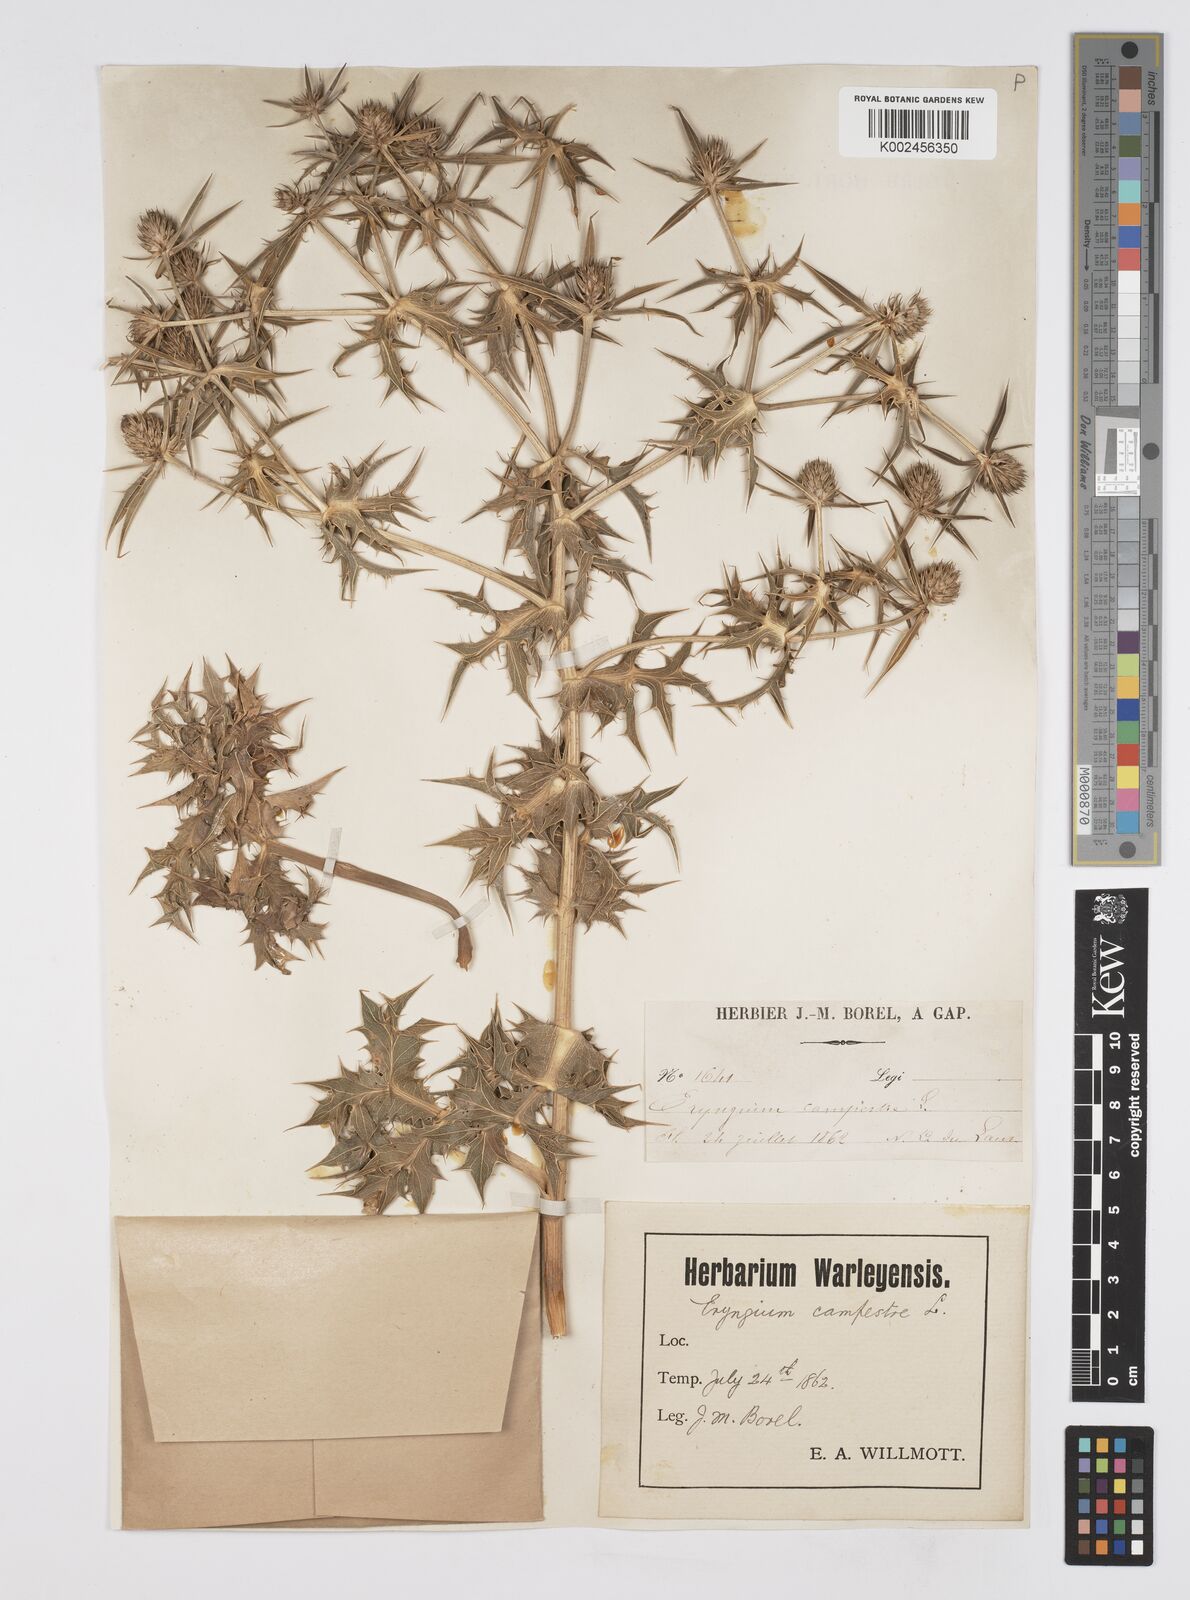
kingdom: Plantae
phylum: Tracheophyta
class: Magnoliopsida
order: Apiales
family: Apiaceae
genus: Eryngium
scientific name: Eryngium campestre
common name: Field eryngo
